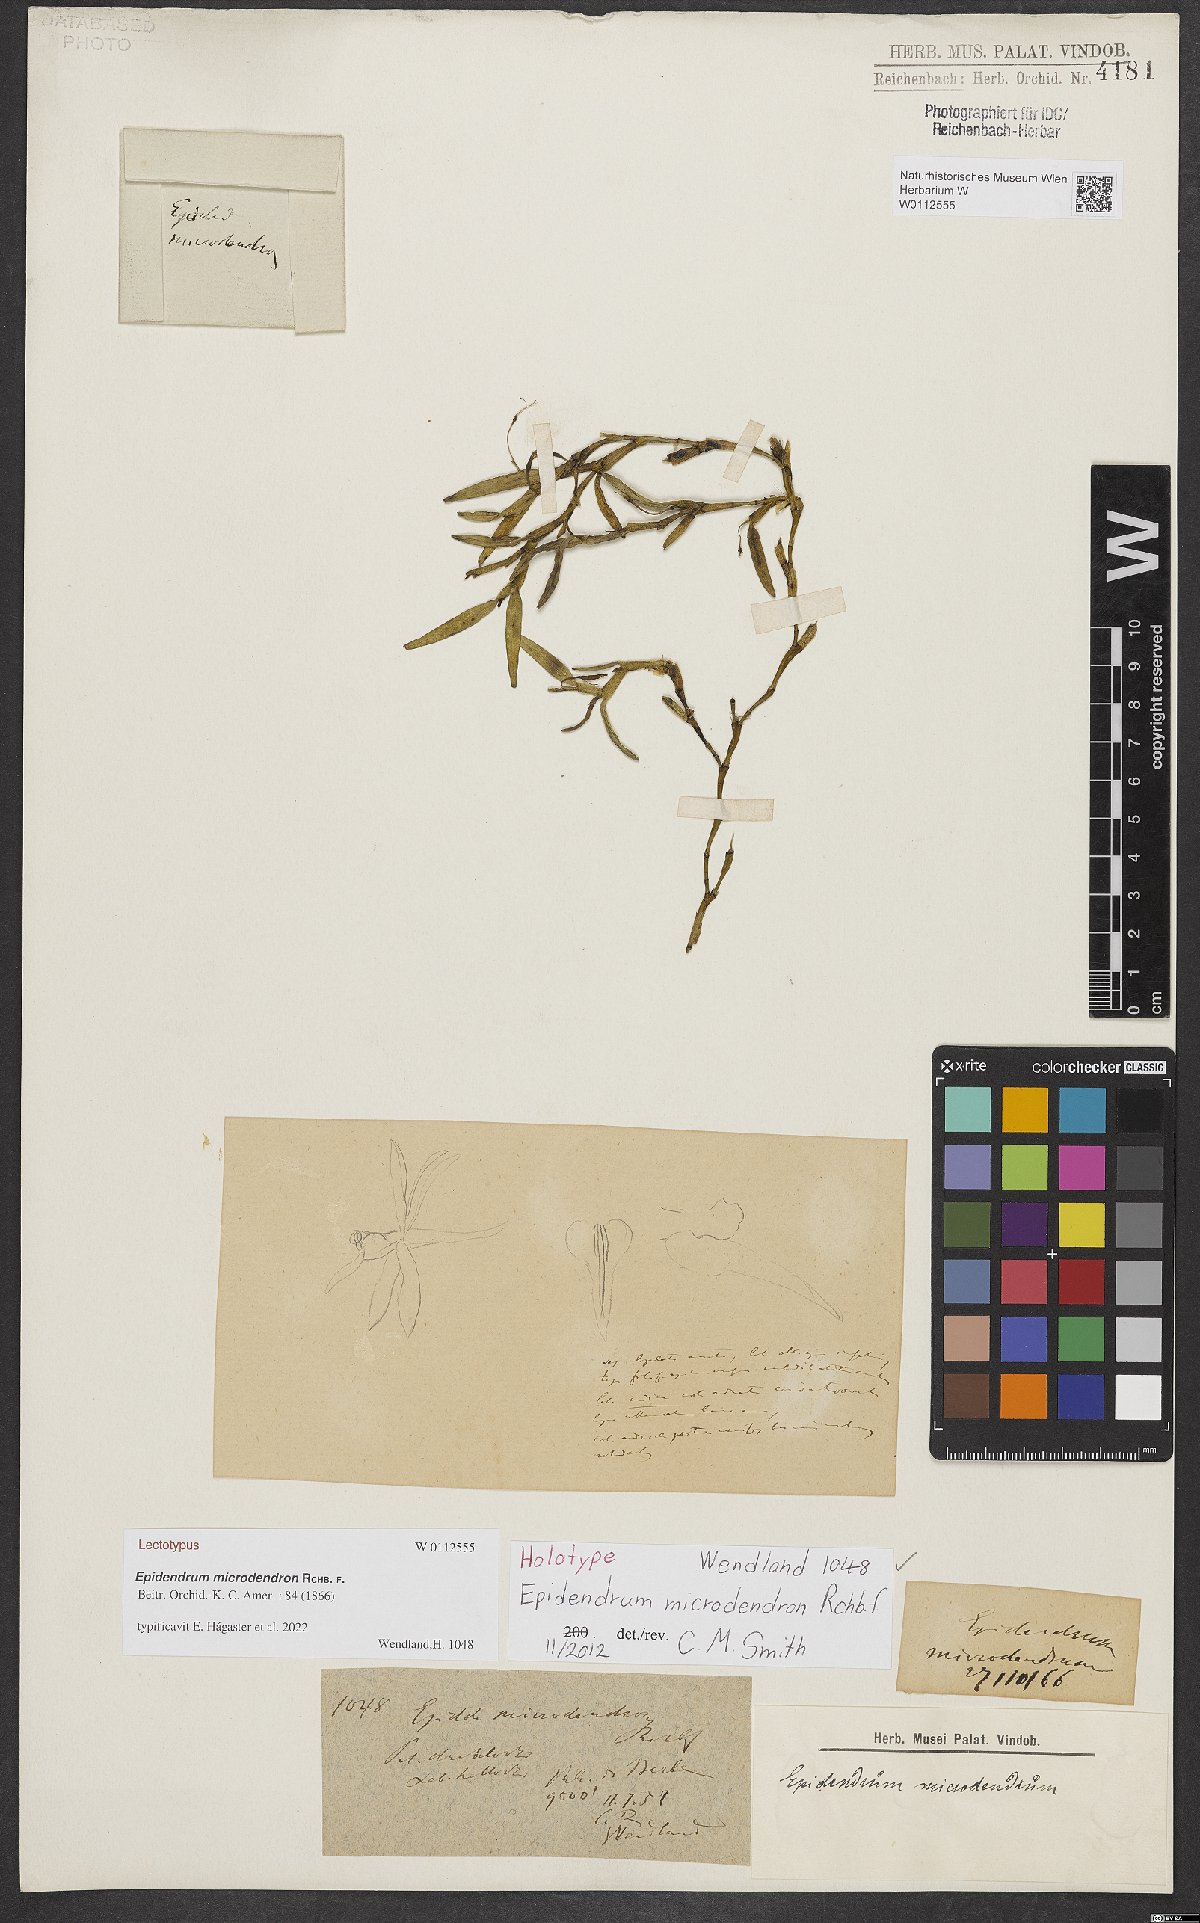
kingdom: Plantae
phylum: Tracheophyta
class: Liliopsida
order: Asparagales
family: Orchidaceae
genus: Epidendrum
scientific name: Epidendrum microdendron
